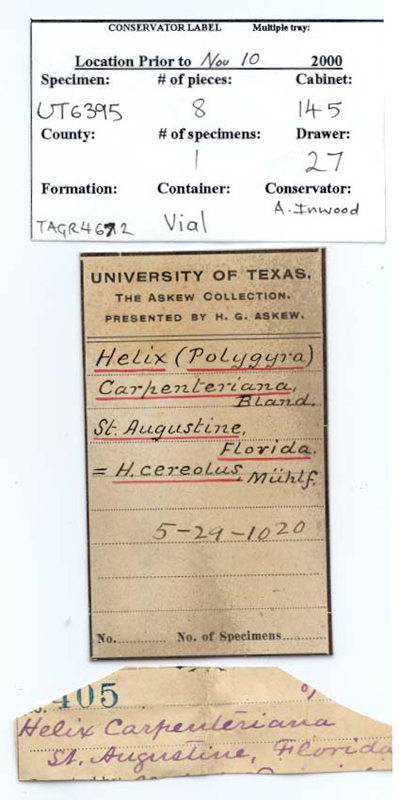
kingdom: Animalia
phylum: Mollusca
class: Gastropoda
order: Stylommatophora
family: Polygyridae
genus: Polygyra
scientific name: Polygyra cereolus
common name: Southern flatcone snail
